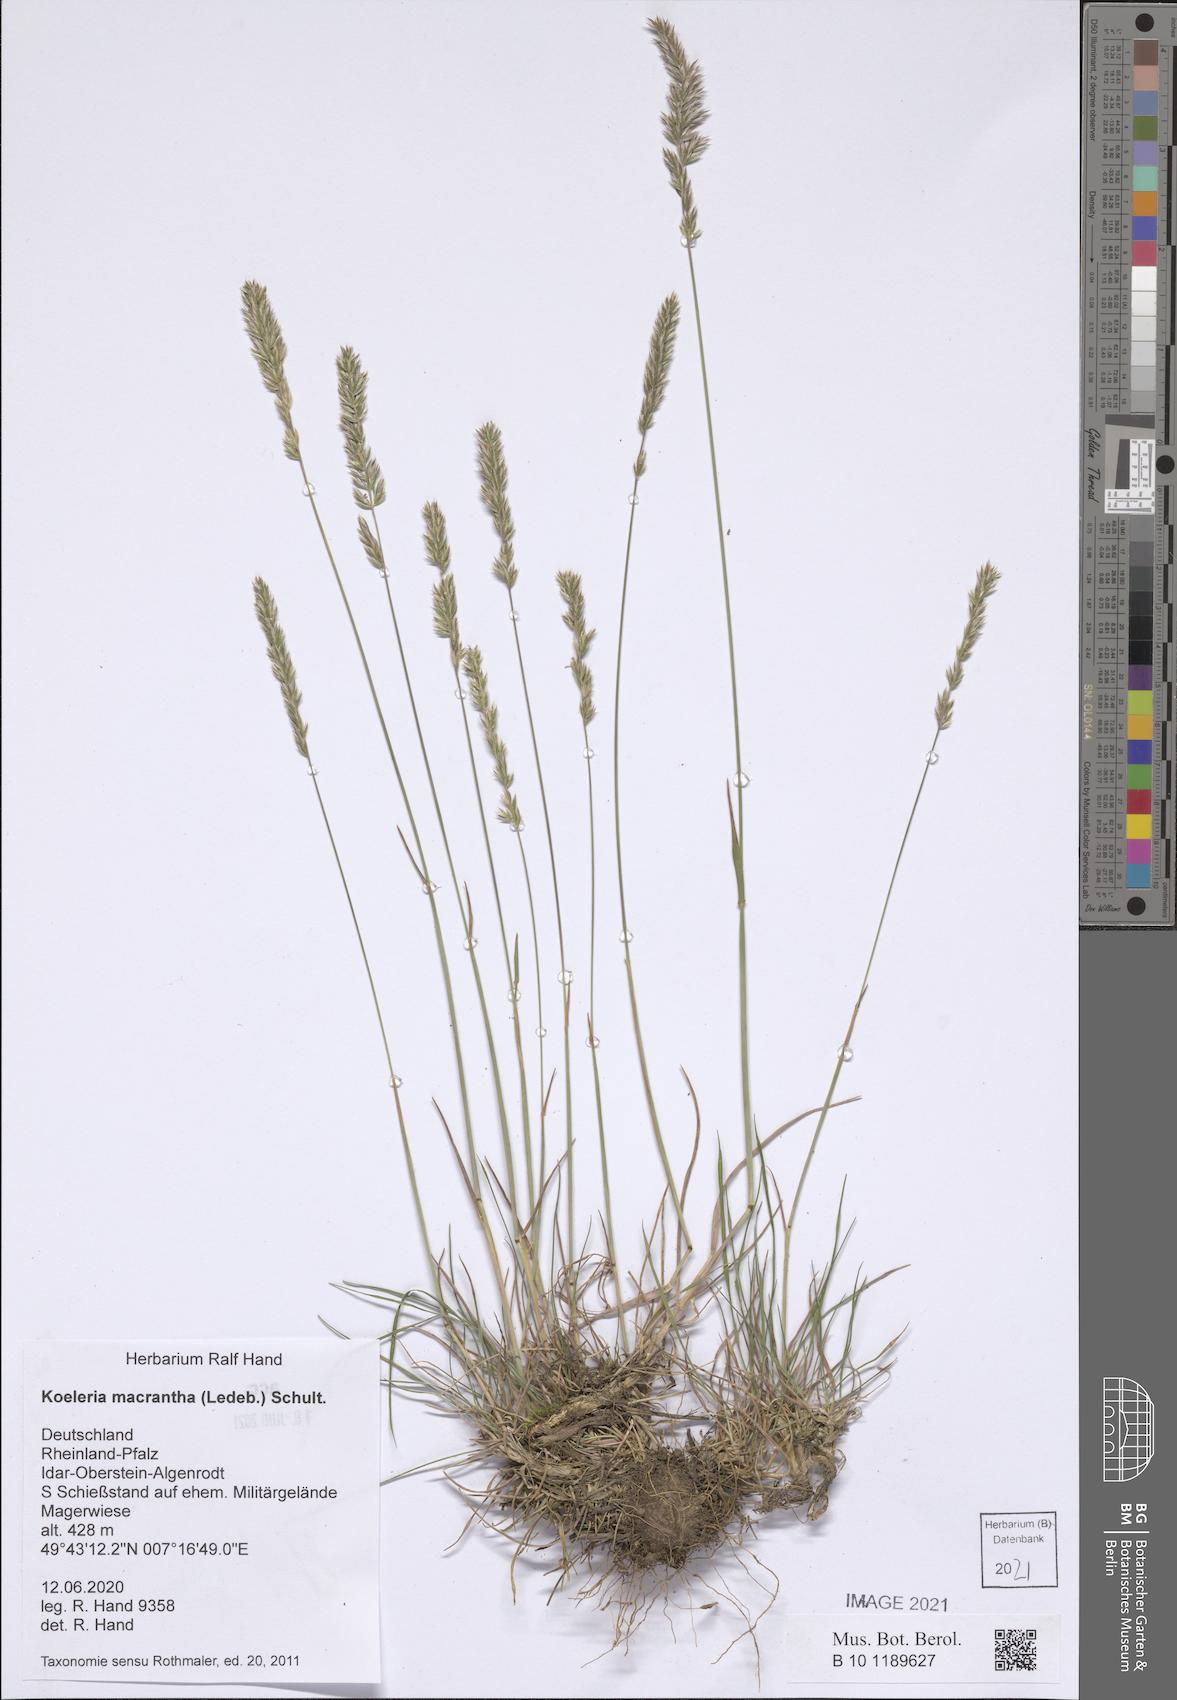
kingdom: Plantae
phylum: Tracheophyta
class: Liliopsida
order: Poales
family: Poaceae
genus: Koeleria
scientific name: Koeleria macrantha
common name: Crested hair-grass
